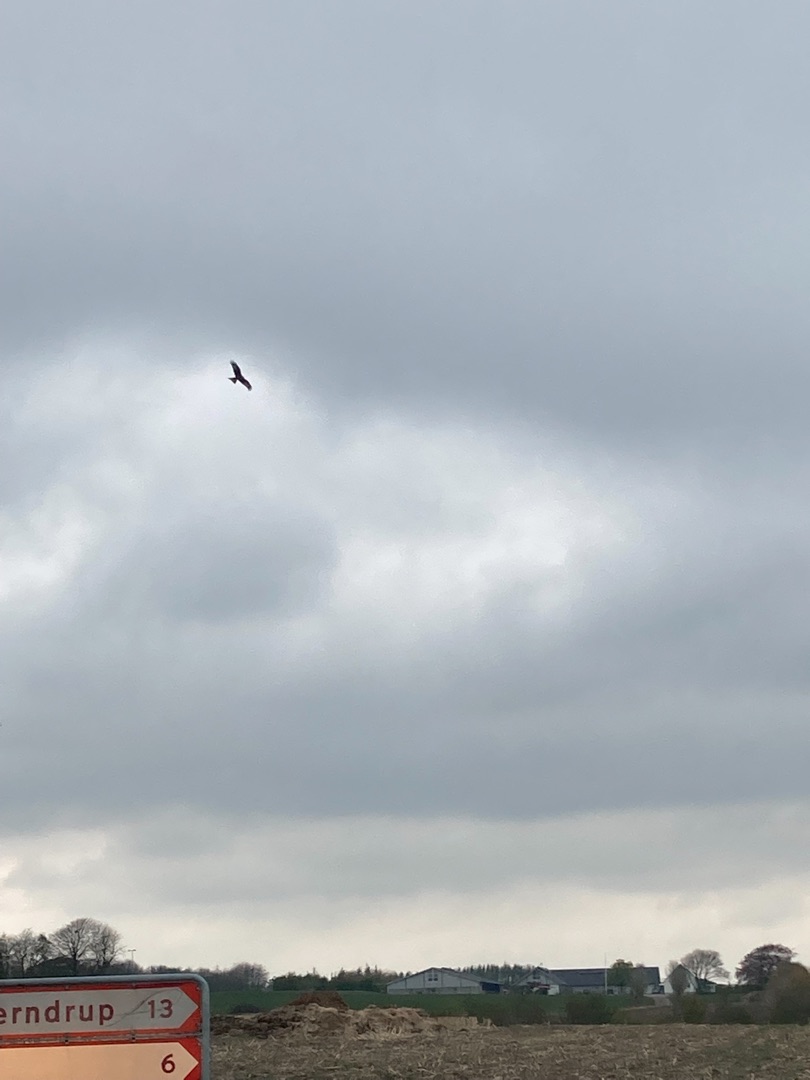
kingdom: Animalia
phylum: Chordata
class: Aves
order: Accipitriformes
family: Accipitridae
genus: Milvus
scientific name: Milvus milvus
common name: Rød glente
